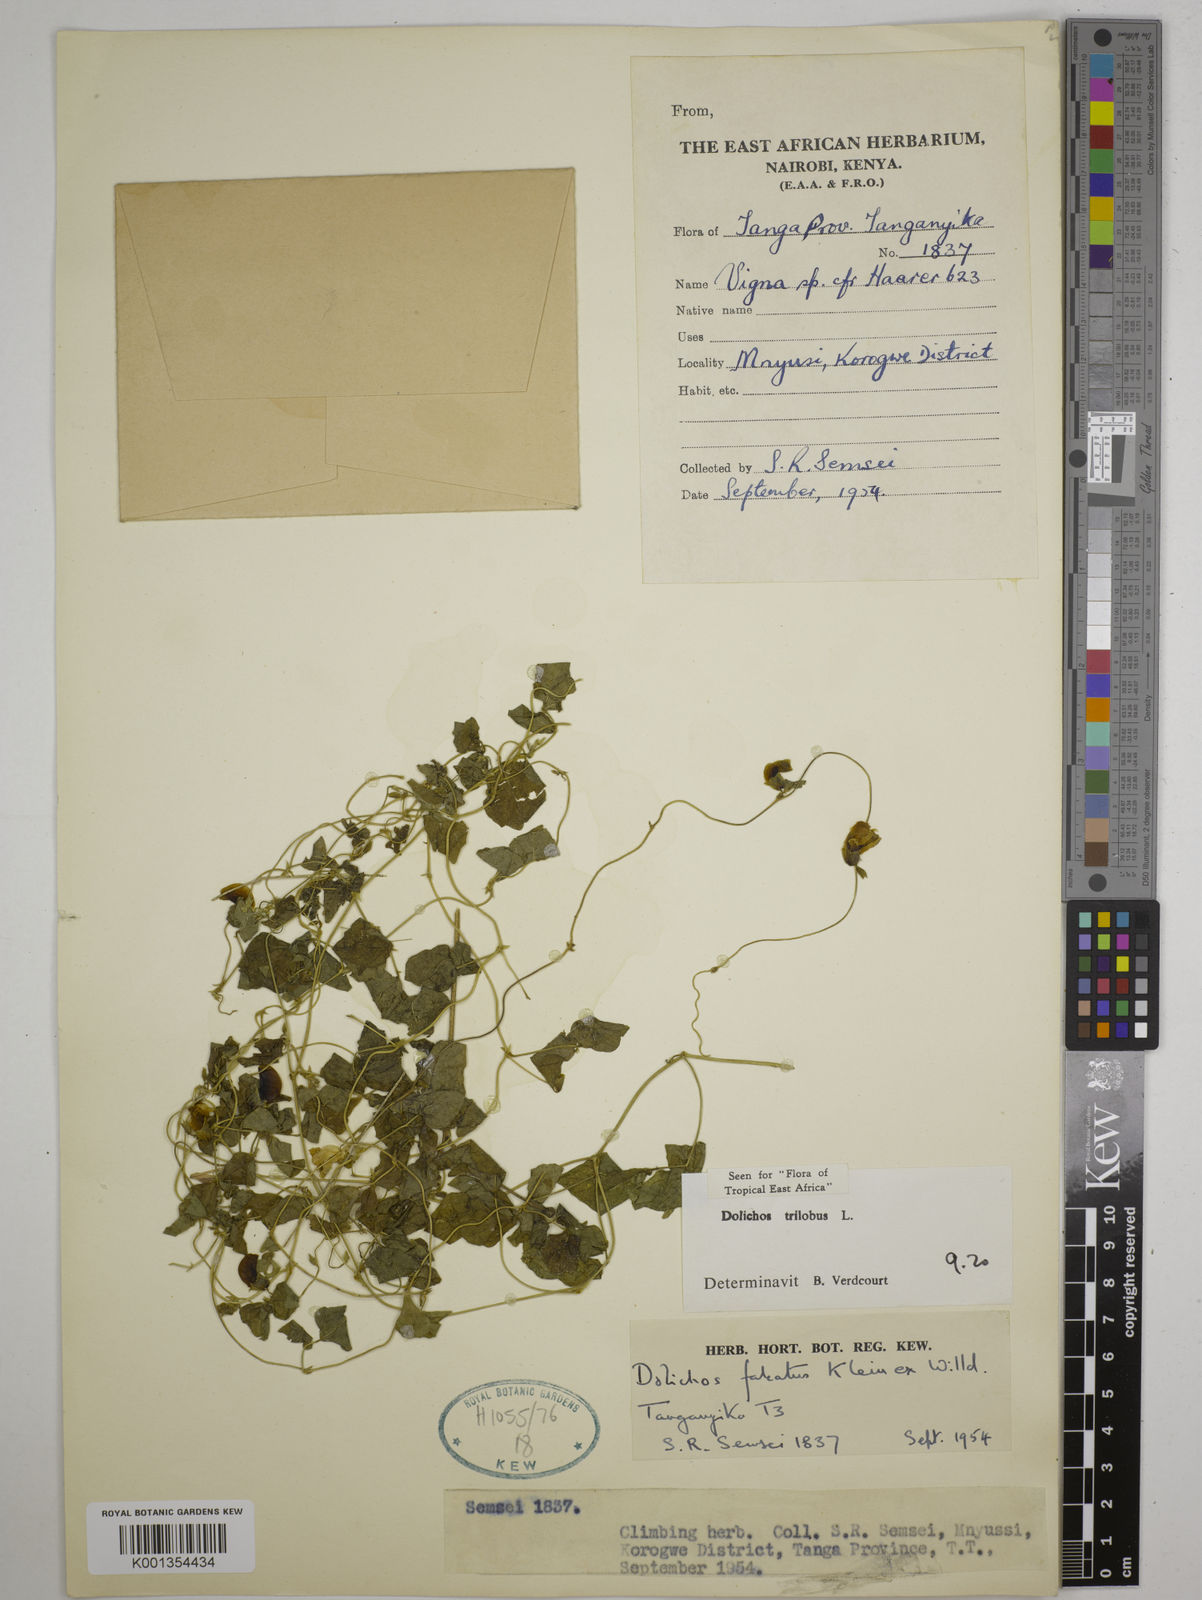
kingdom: Plantae
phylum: Tracheophyta
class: Magnoliopsida
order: Fabales
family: Fabaceae
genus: Dolichos
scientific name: Dolichos
